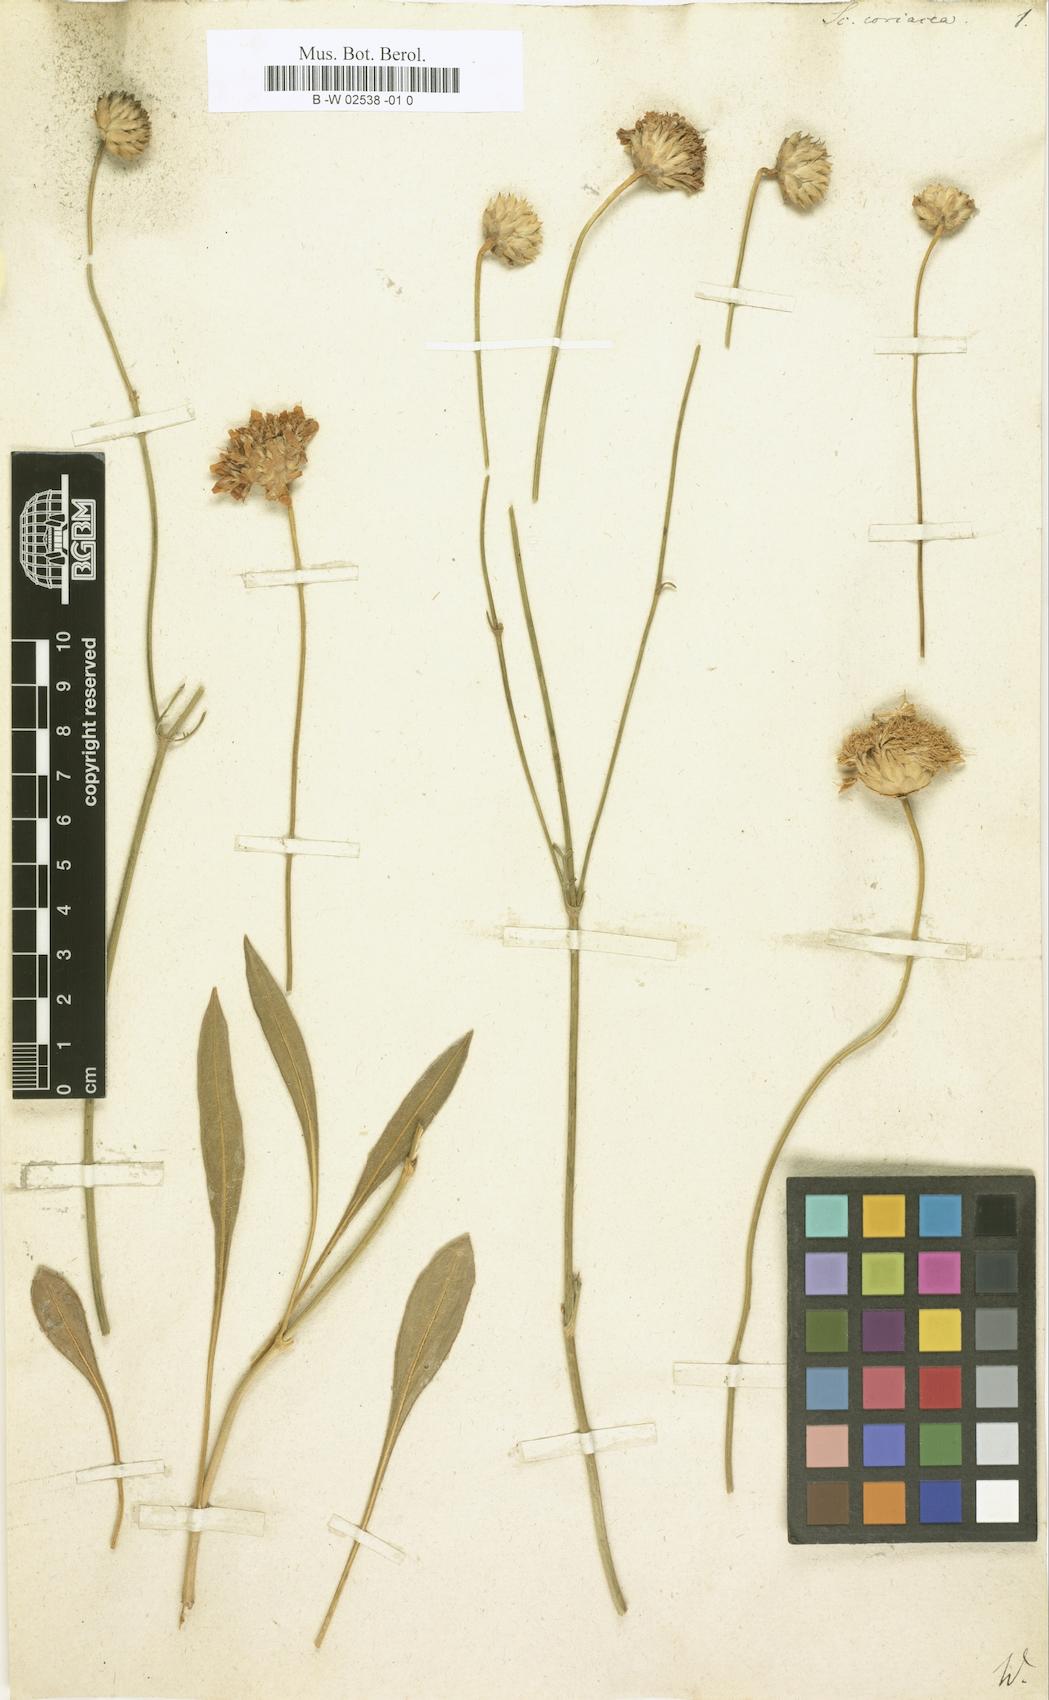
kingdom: Plantae
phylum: Tracheophyta
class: Magnoliopsida
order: Dipsacales
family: Caprifoliaceae
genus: Cephalaria
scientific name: Cephalaria coriacea
